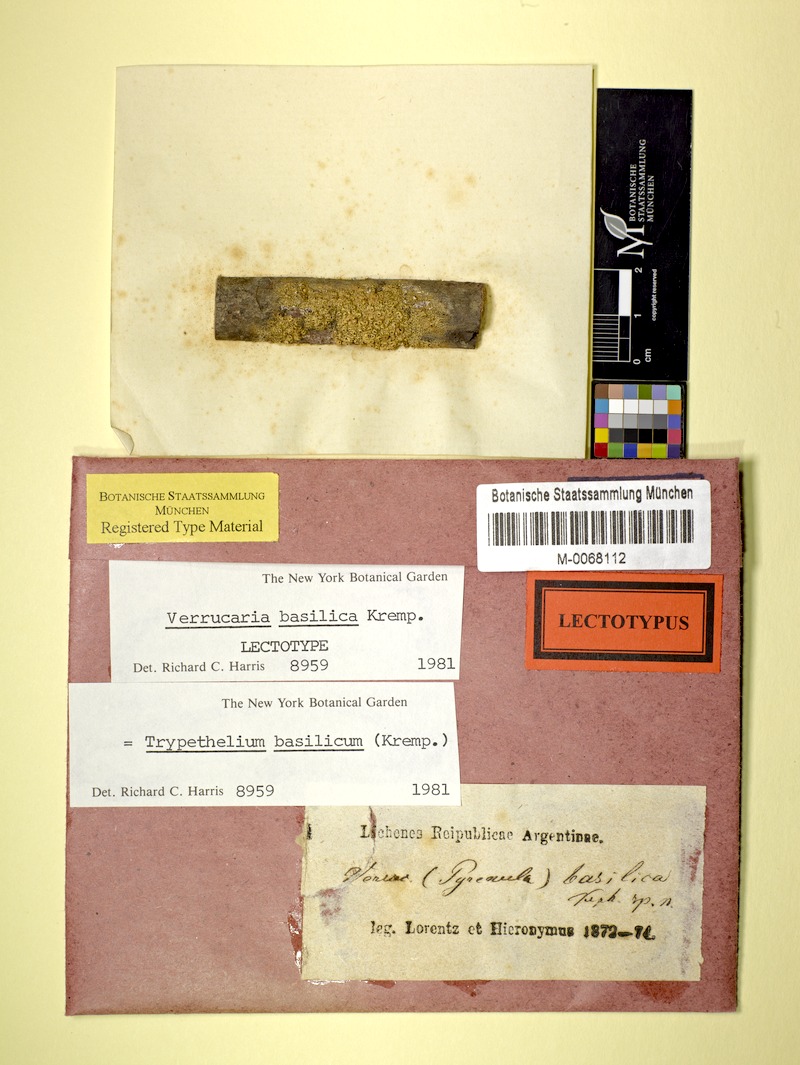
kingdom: Fungi
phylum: Ascomycota
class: Dothideomycetes
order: Trypetheliales
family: Trypetheliaceae
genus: Astrothelium
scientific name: Astrothelium basilicum
